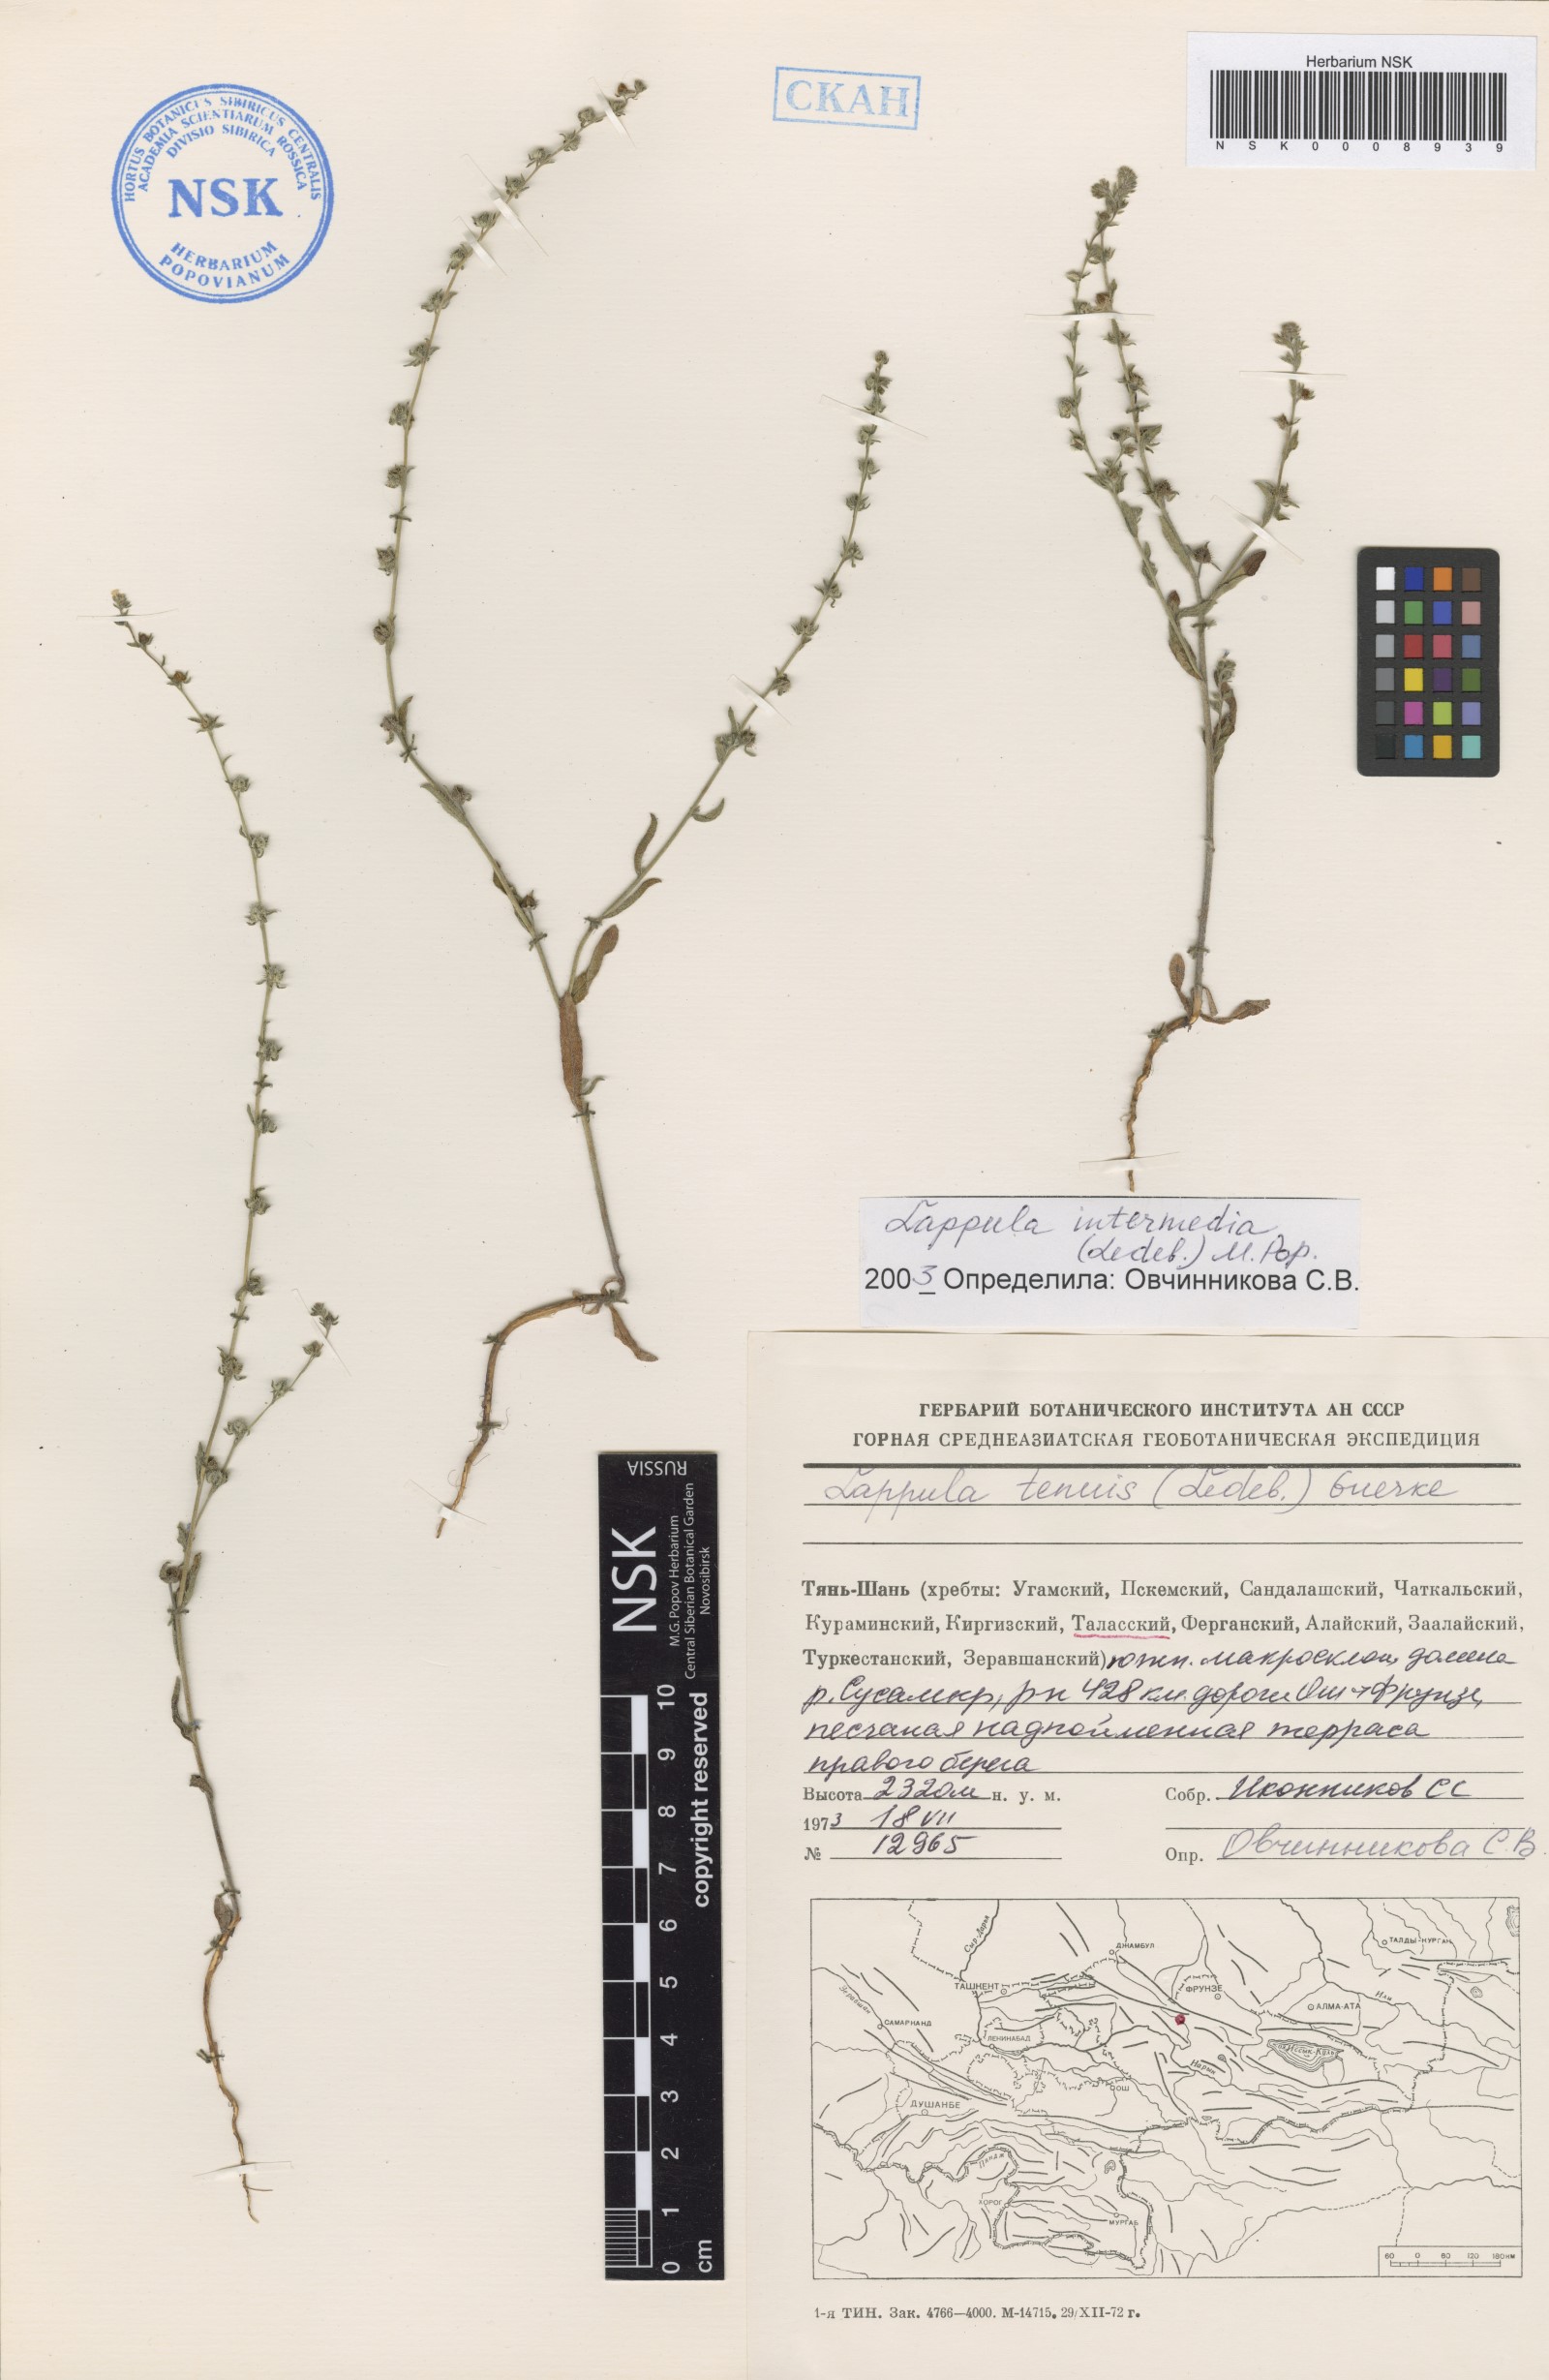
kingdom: Plantae
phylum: Tracheophyta
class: Magnoliopsida
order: Boraginales
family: Boraginaceae
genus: Lappula
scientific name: Lappula intermedia
